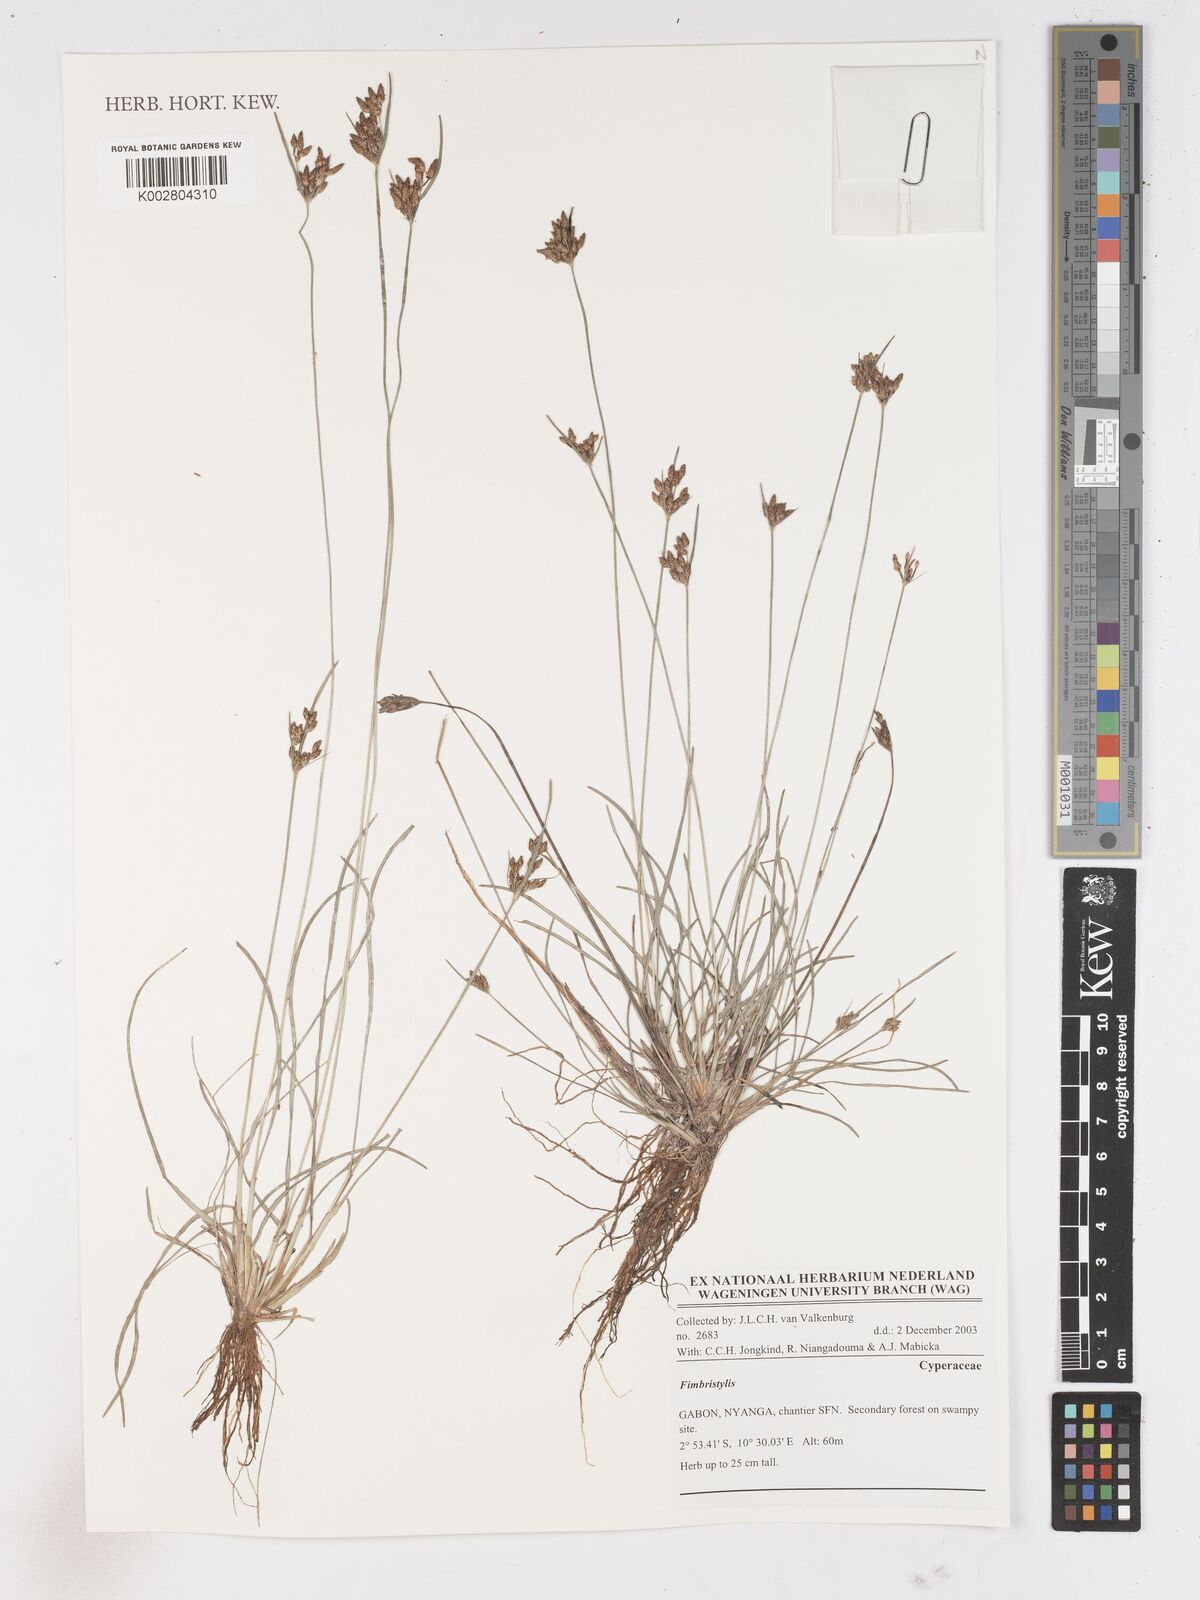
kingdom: Plantae
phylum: Tracheophyta
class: Liliopsida
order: Poales
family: Cyperaceae
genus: Fimbristylis
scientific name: Fimbristylis
